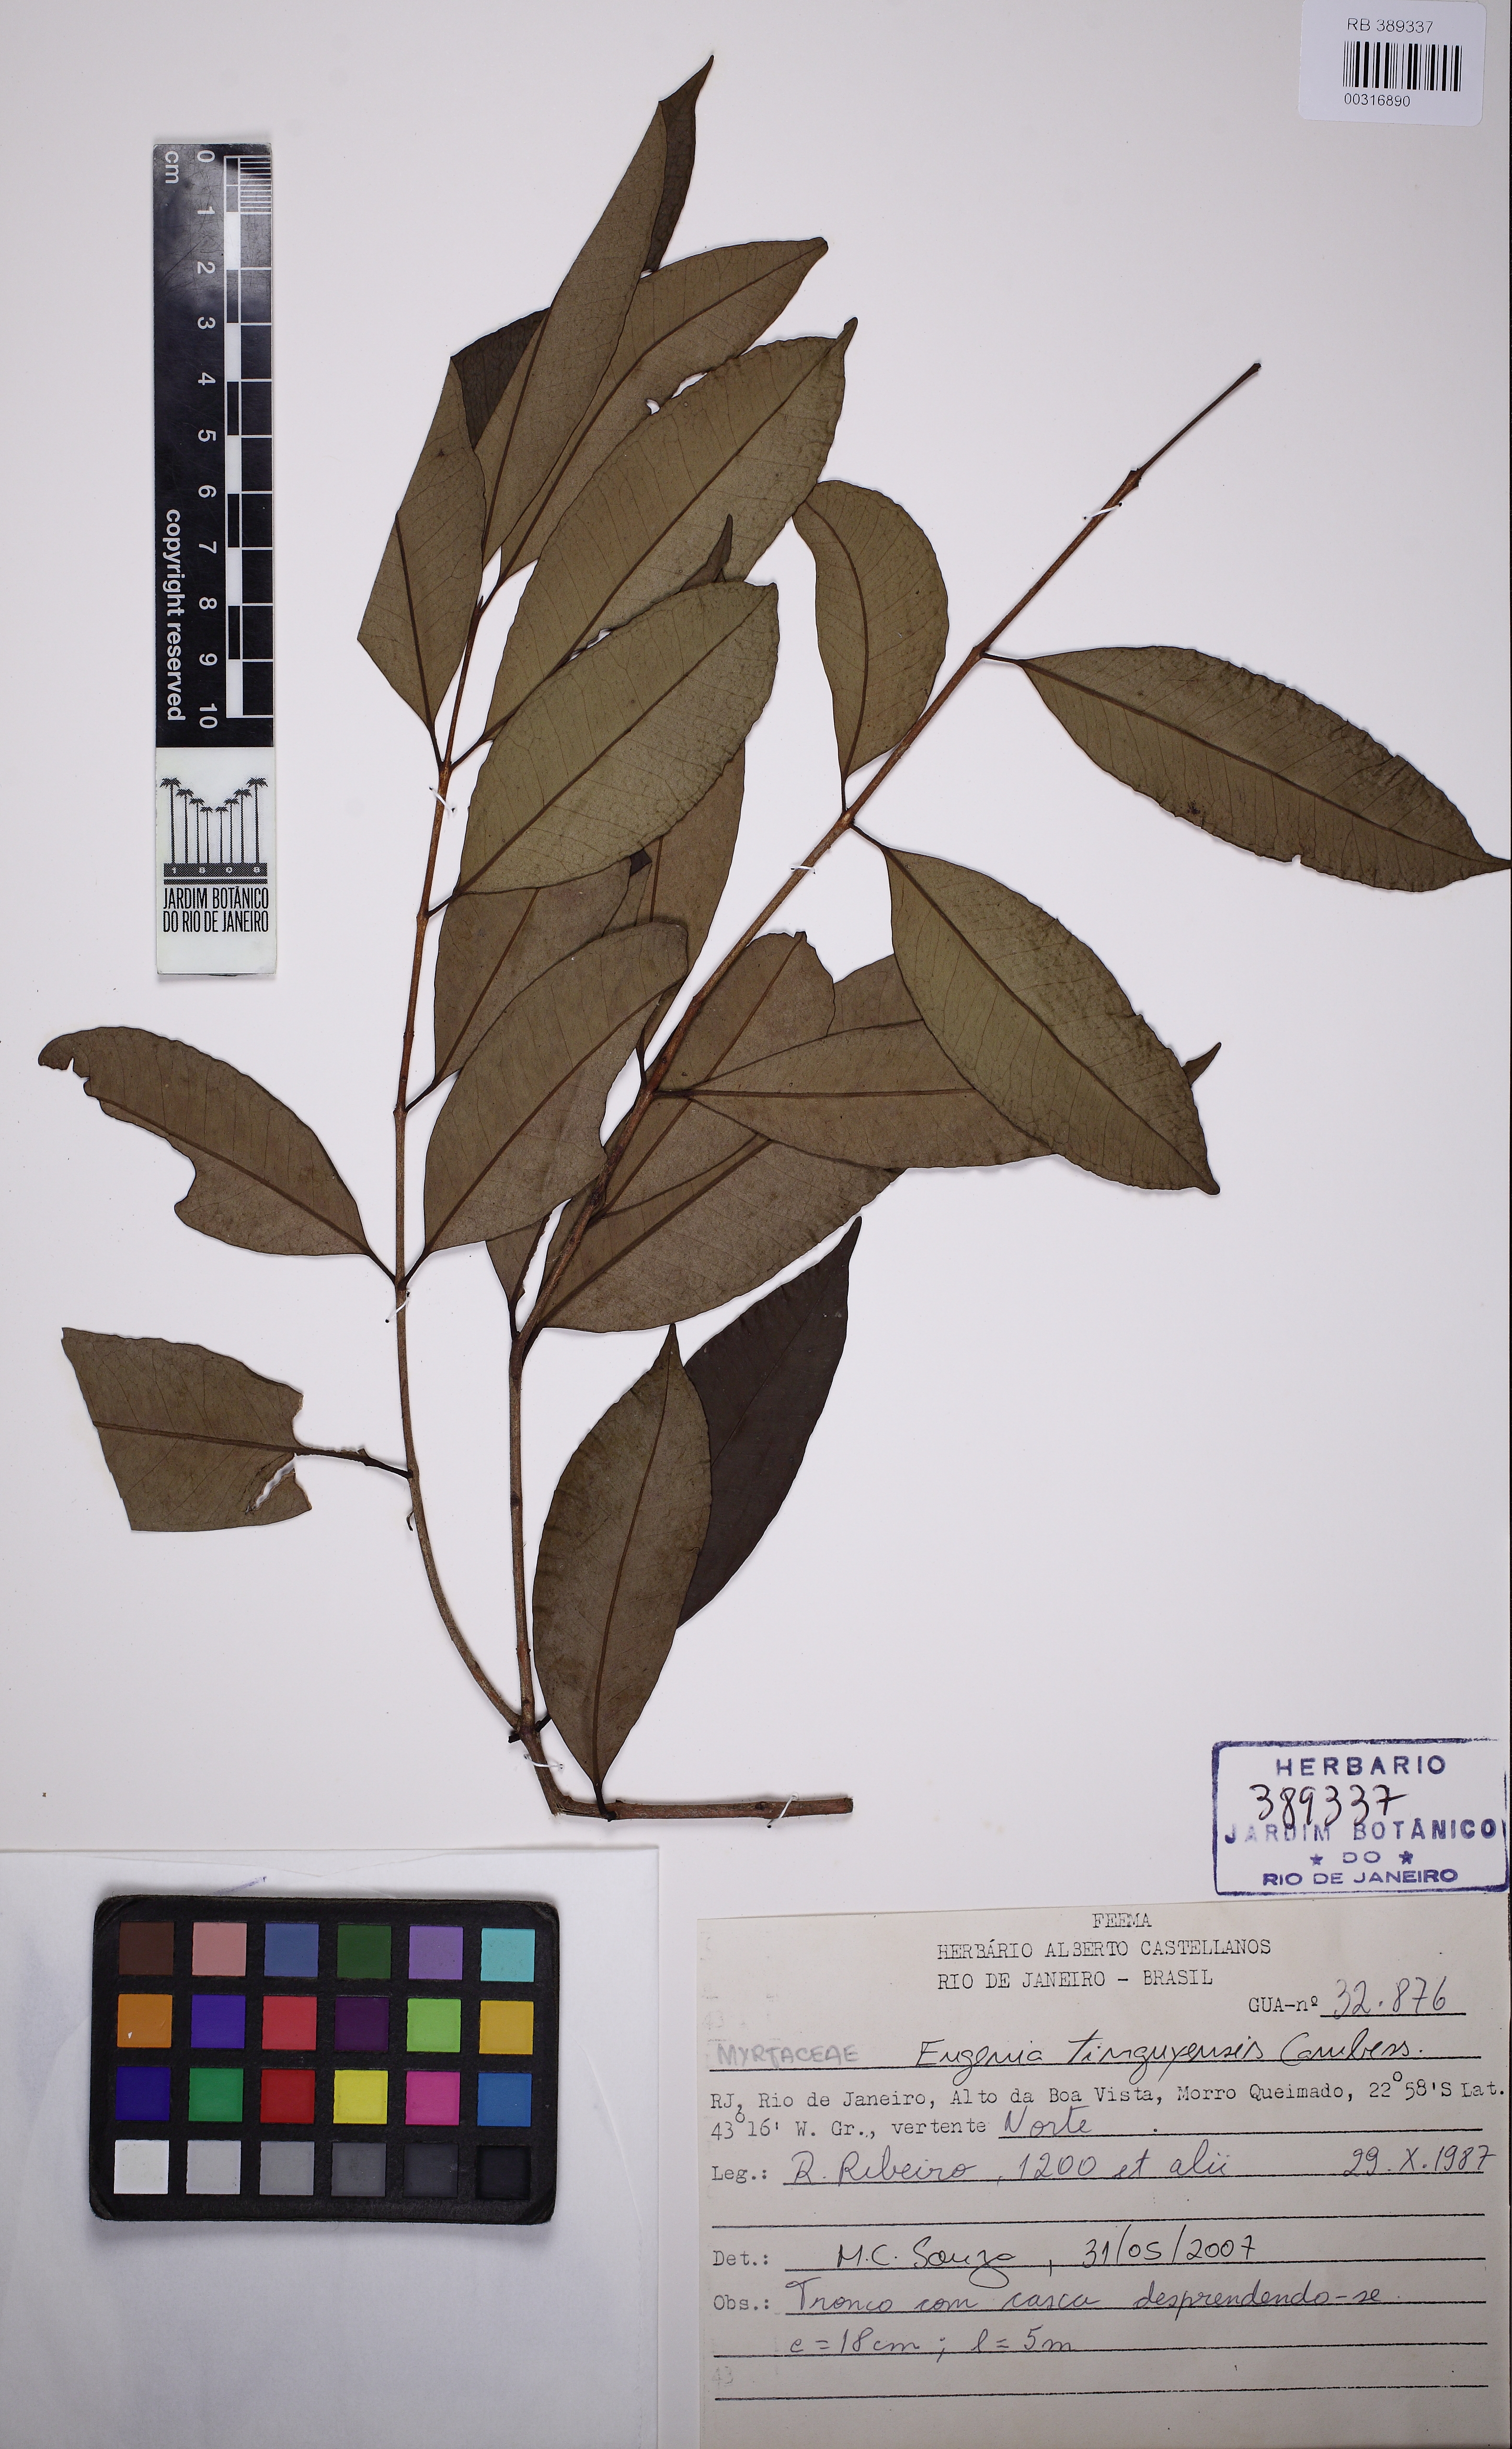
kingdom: Plantae
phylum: Tracheophyta
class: Magnoliopsida
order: Myrtales
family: Myrtaceae
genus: Eugenia
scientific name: Eugenia pisiformis
